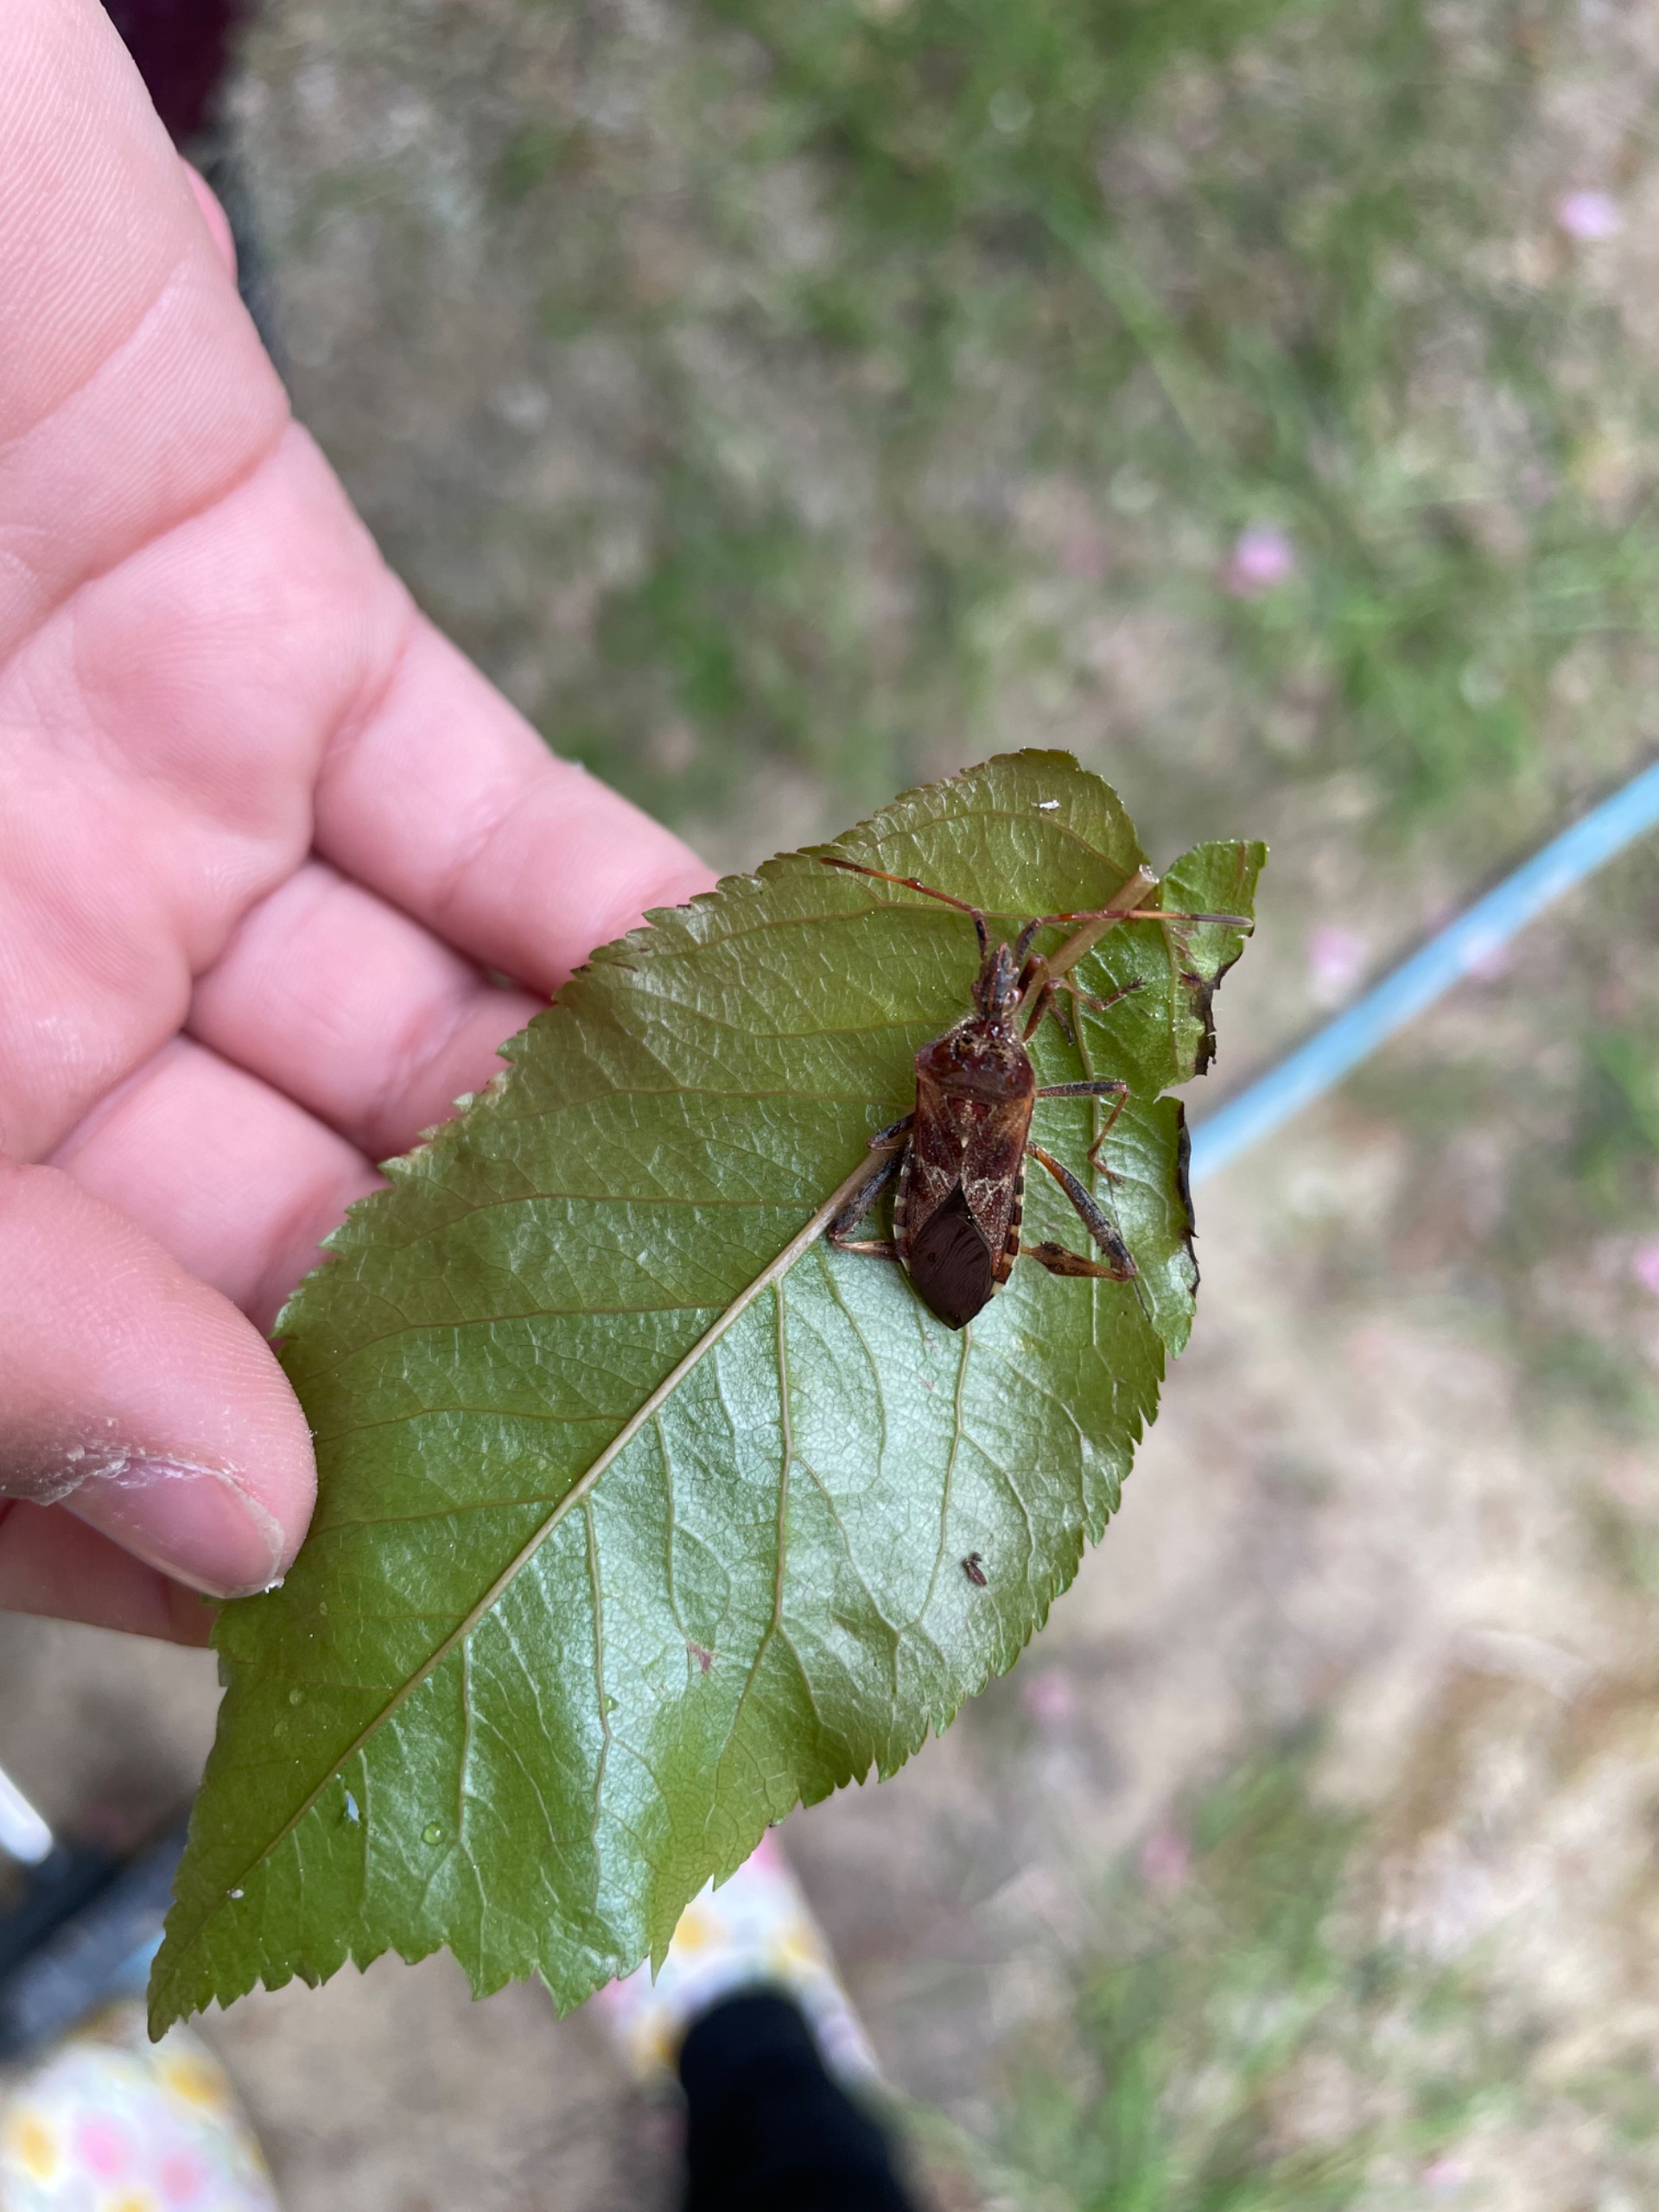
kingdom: Animalia
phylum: Arthropoda
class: Insecta
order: Hemiptera
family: Coreidae
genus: Leptoglossus
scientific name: Leptoglossus occidentalis
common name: Amerikansk fyrretæge
